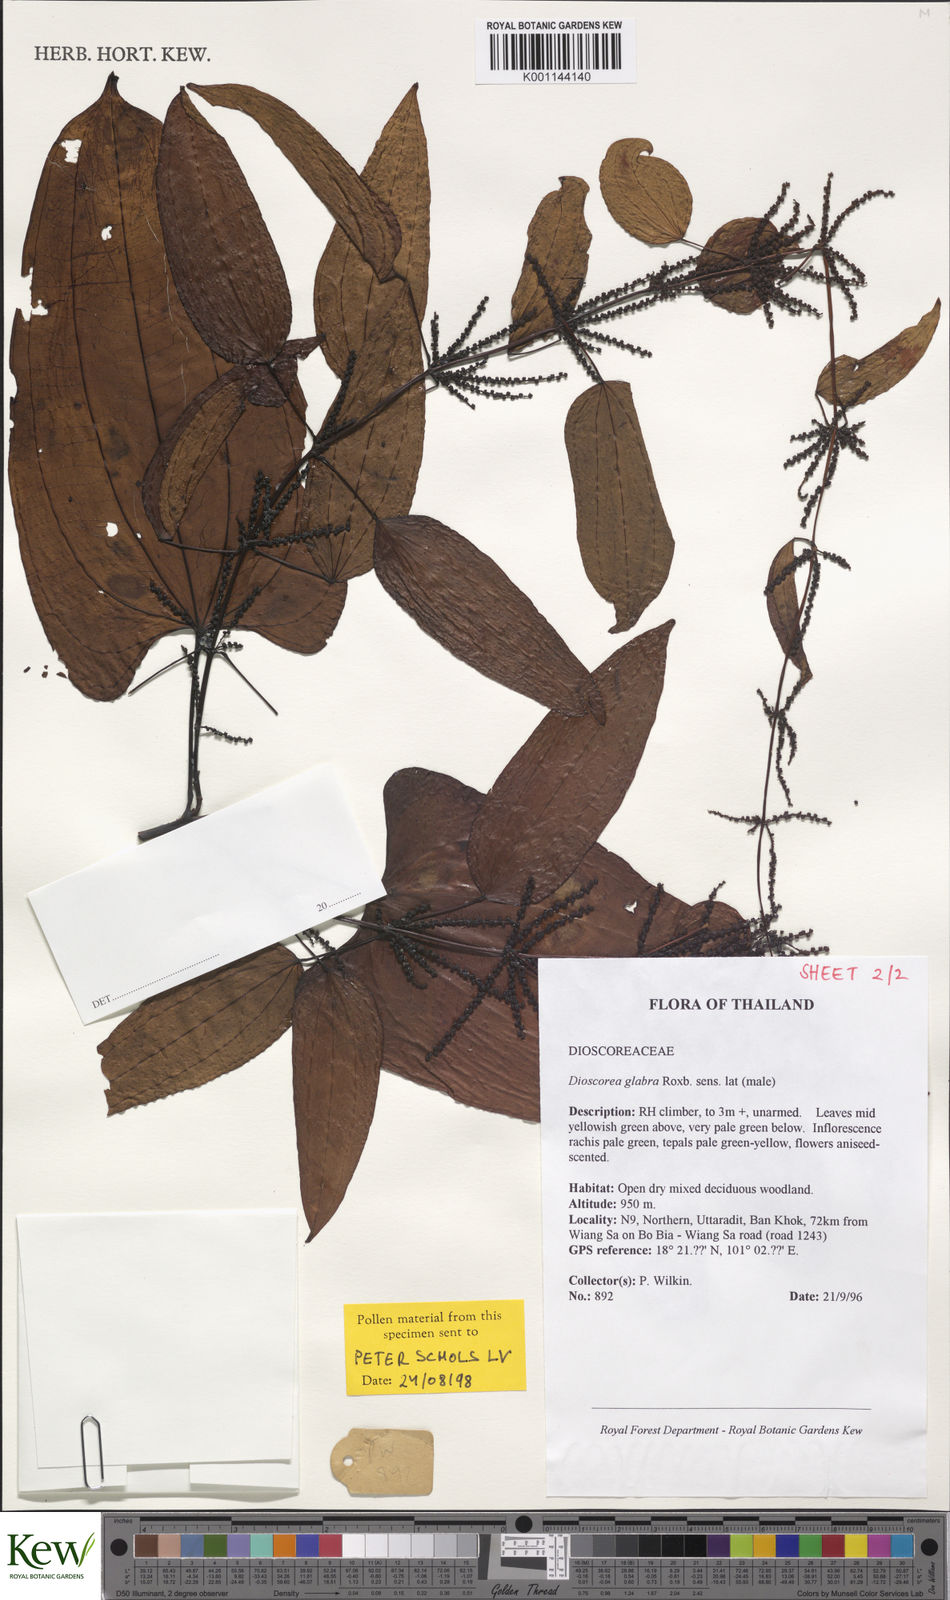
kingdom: Plantae
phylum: Tracheophyta
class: Liliopsida
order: Dioscoreales
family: Dioscoreaceae
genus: Dioscorea
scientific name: Dioscorea glabra
